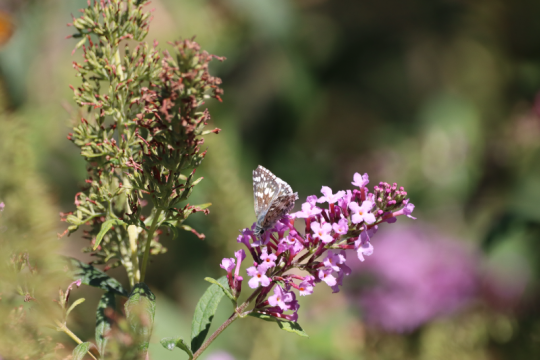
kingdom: Animalia
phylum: Arthropoda
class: Insecta
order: Lepidoptera
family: Hesperiidae
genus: Pyrgus
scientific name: Pyrgus communis
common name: Common Checkered-Skipper
